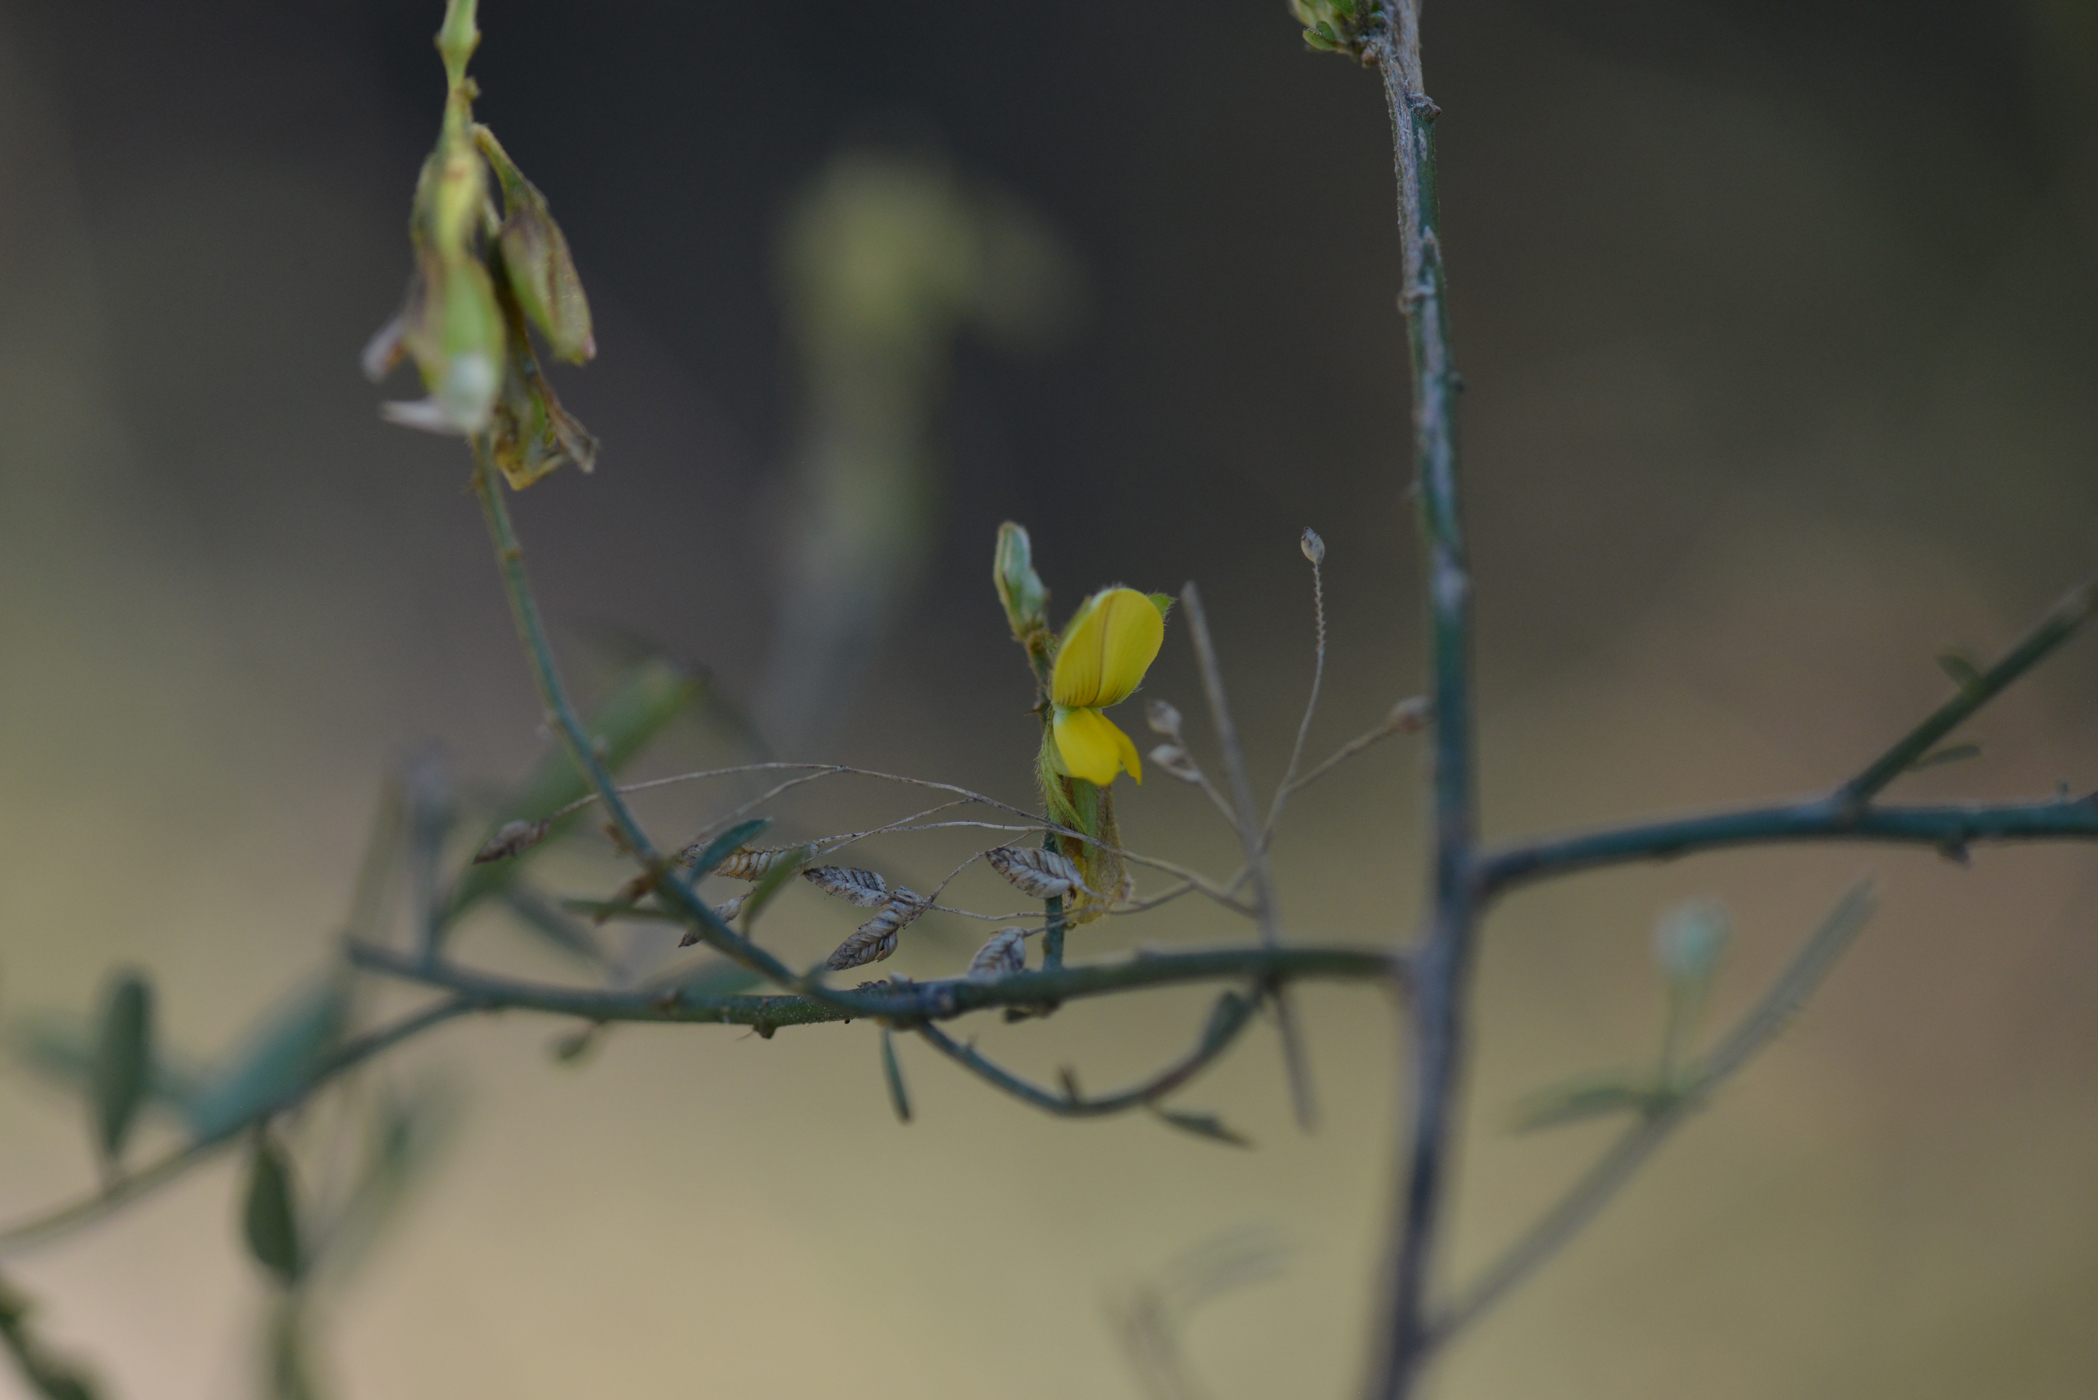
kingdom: Plantae
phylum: Tracheophyta
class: Magnoliopsida
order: Fabales
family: Fabaceae
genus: Crotalaria
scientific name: Crotalaria albida
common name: Taiwan crotalaria
